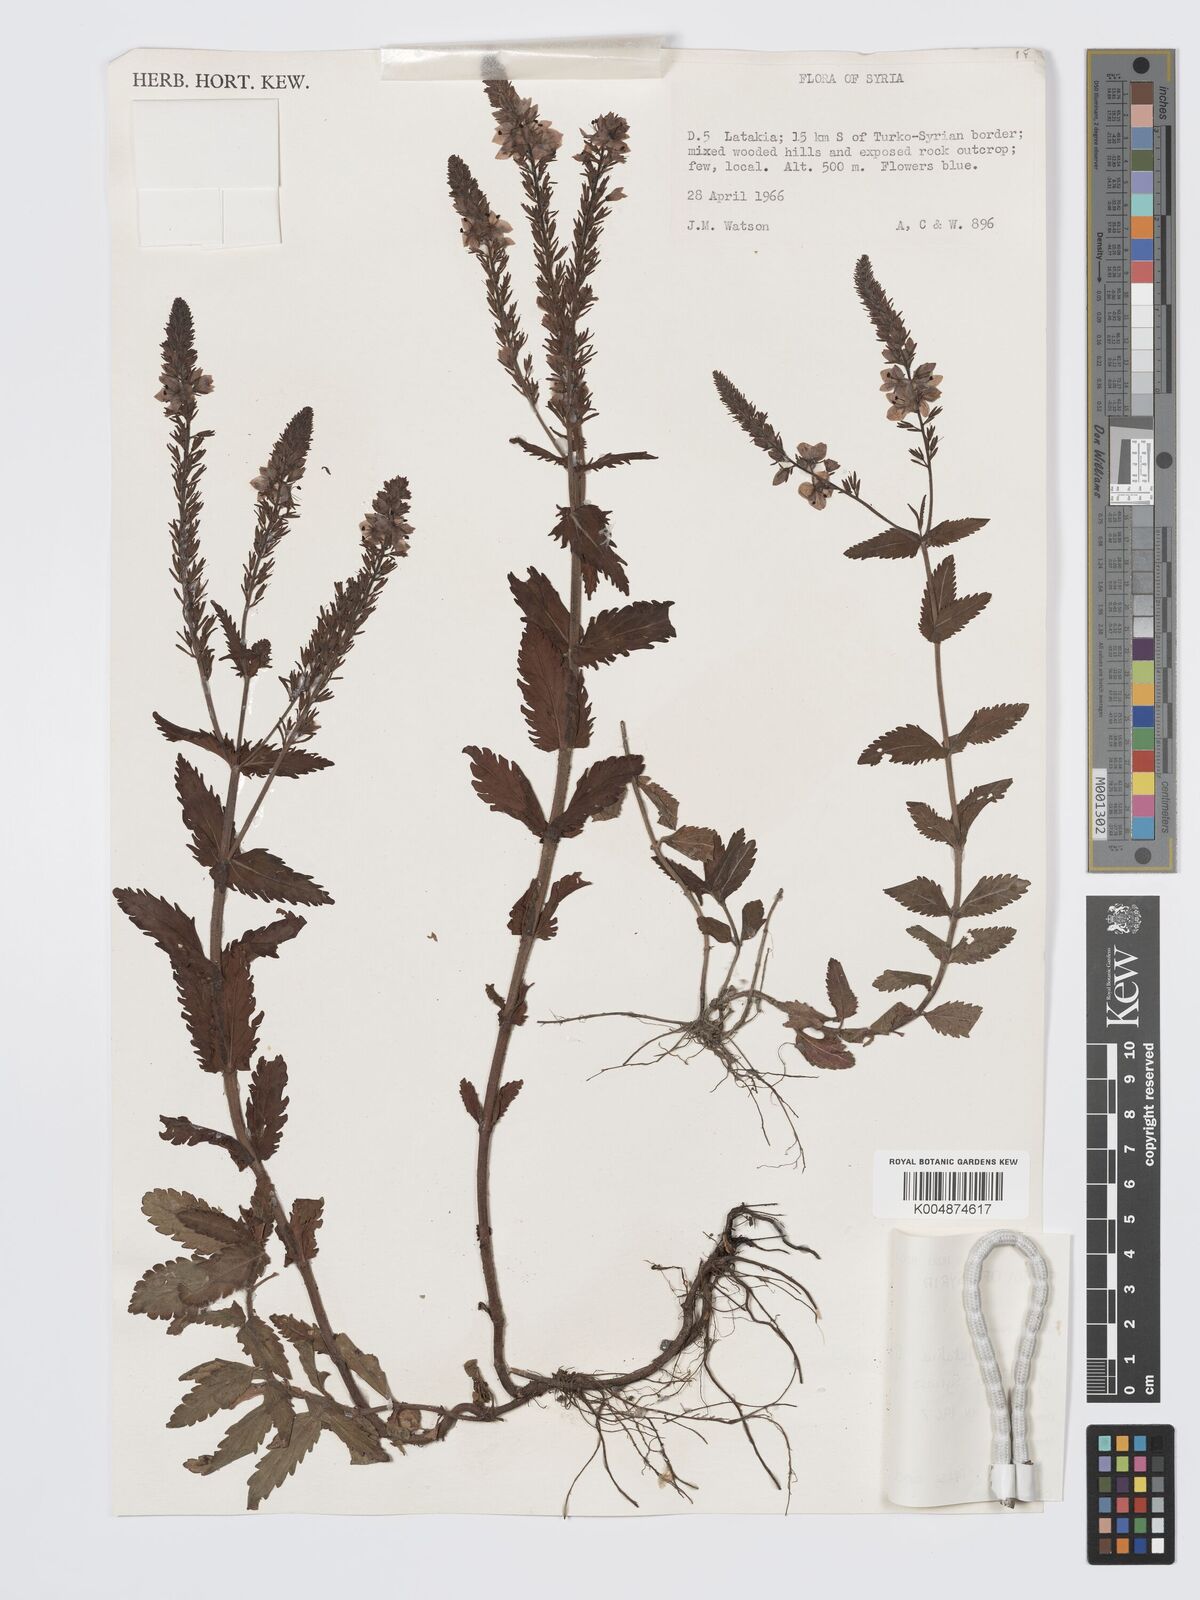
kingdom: Plantae
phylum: Tracheophyta
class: Magnoliopsida
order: Lamiales
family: Plantaginaceae
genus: Veronica
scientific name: Veronica
